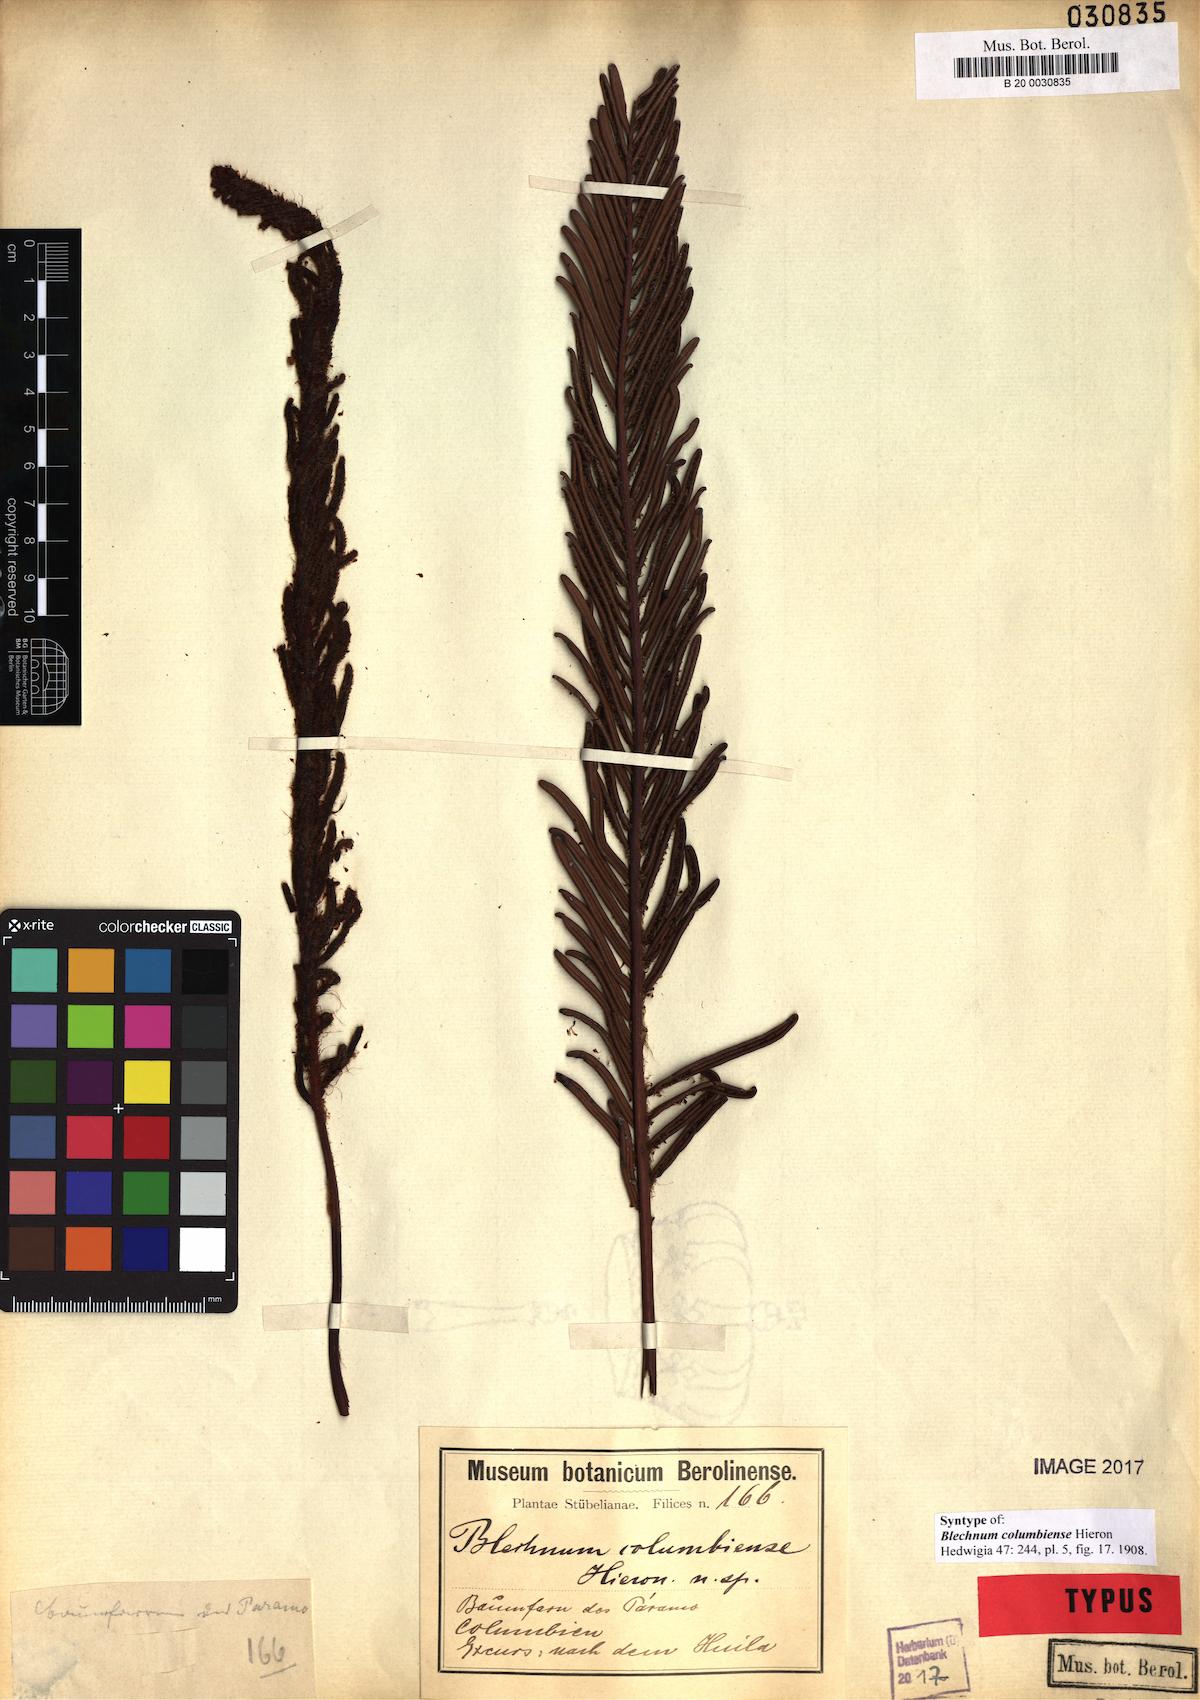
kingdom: Plantae
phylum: Tracheophyta
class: Polypodiopsida
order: Polypodiales
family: Blechnaceae
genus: Lomariocycas
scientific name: Lomariocycas columbiensis
